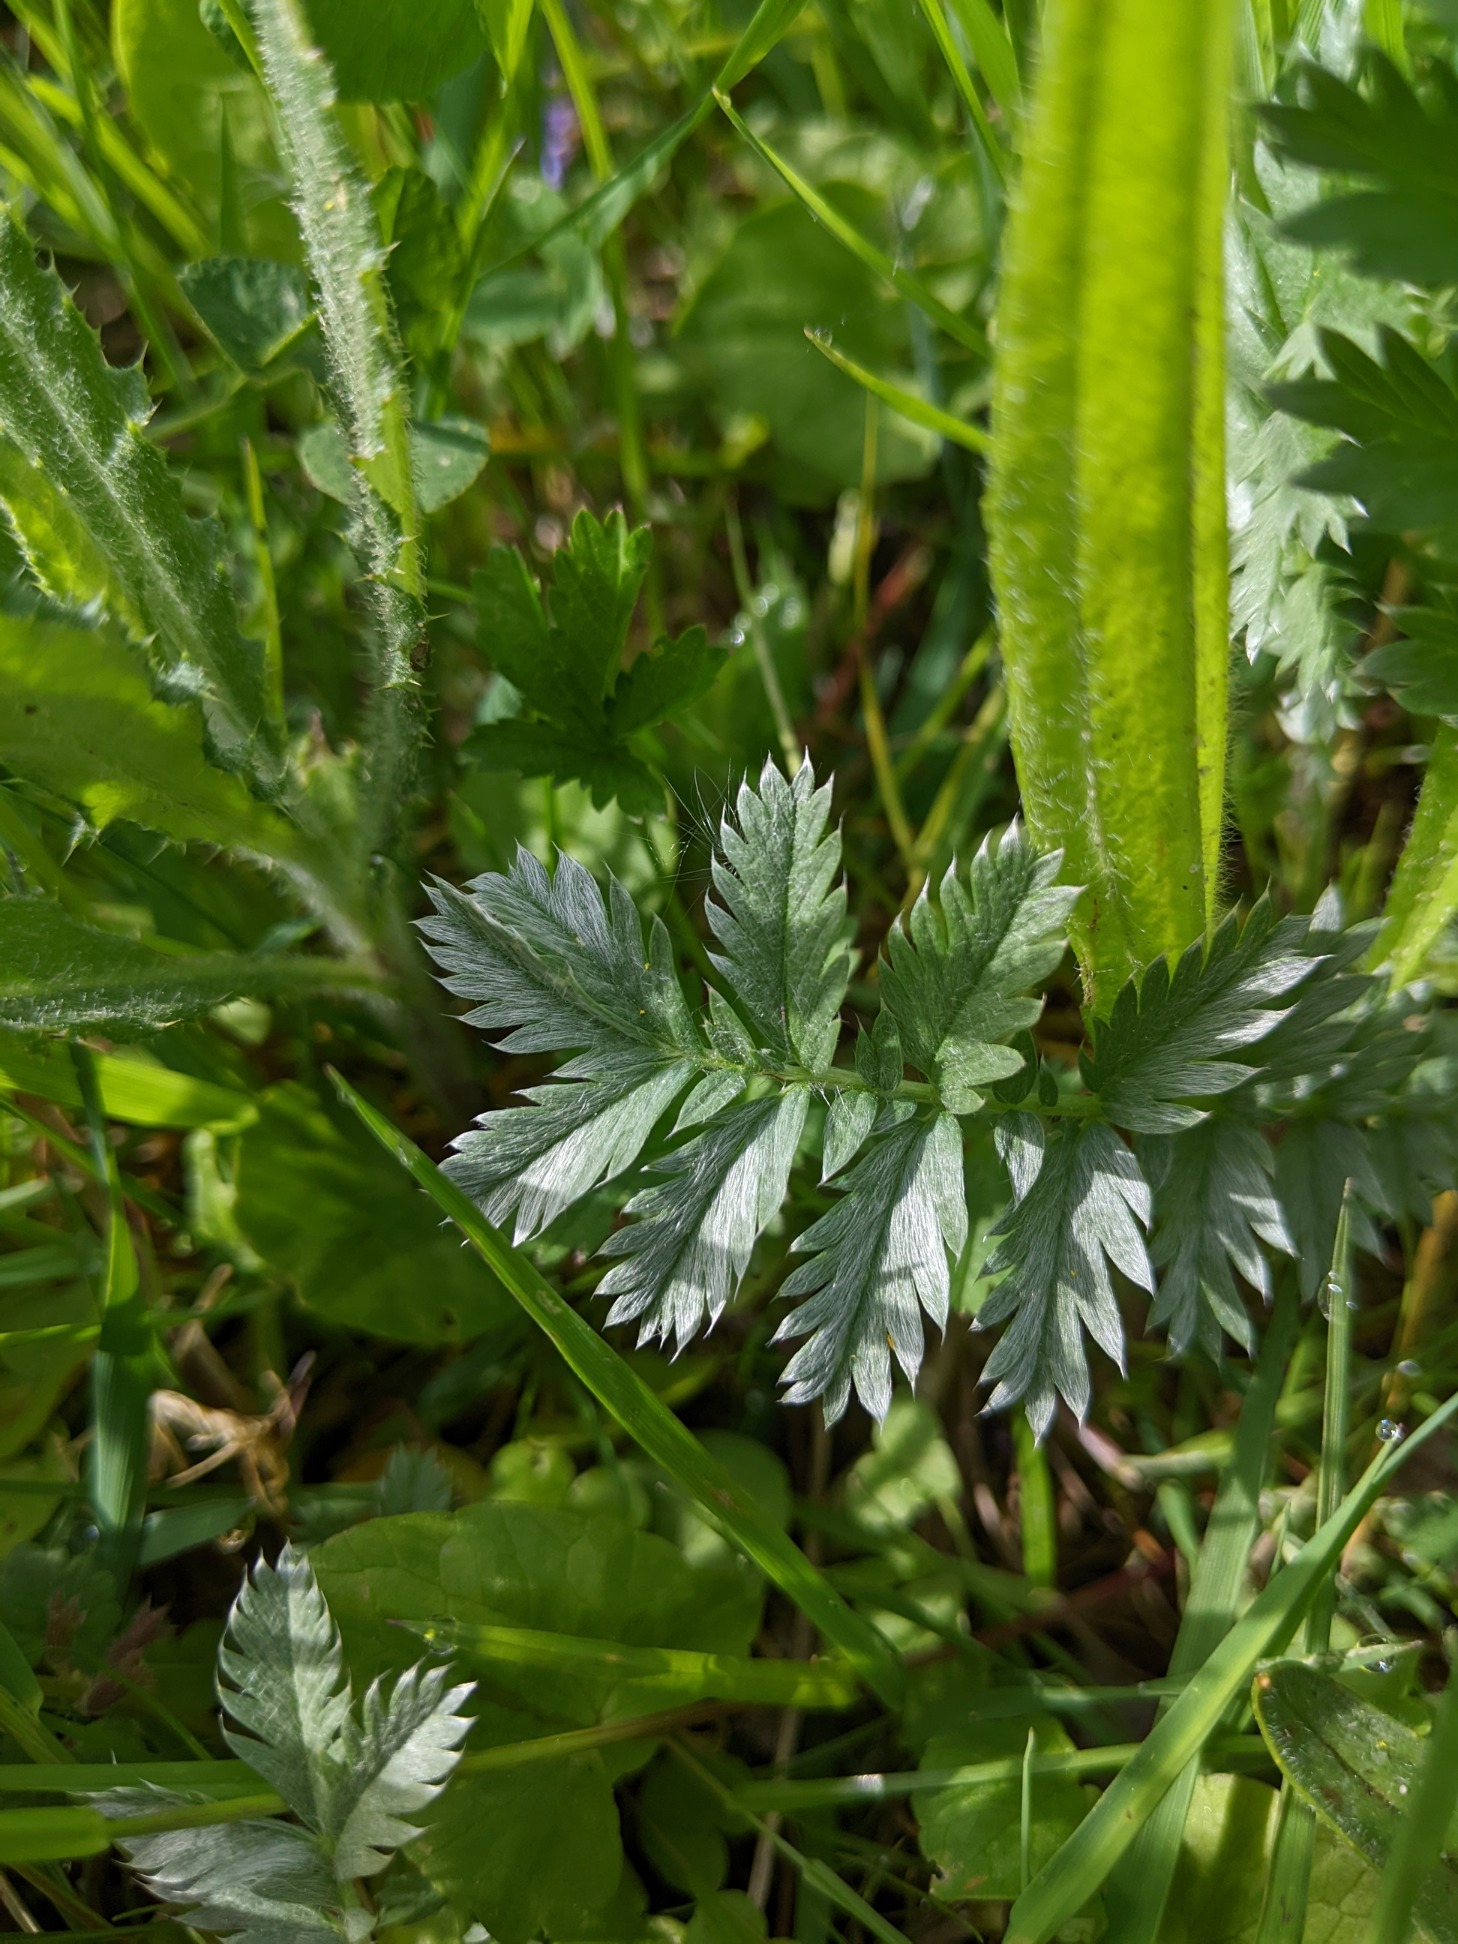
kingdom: Plantae
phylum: Tracheophyta
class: Magnoliopsida
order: Rosales
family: Rosaceae
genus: Argentina
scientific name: Argentina anserina
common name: Gåsepotentil
